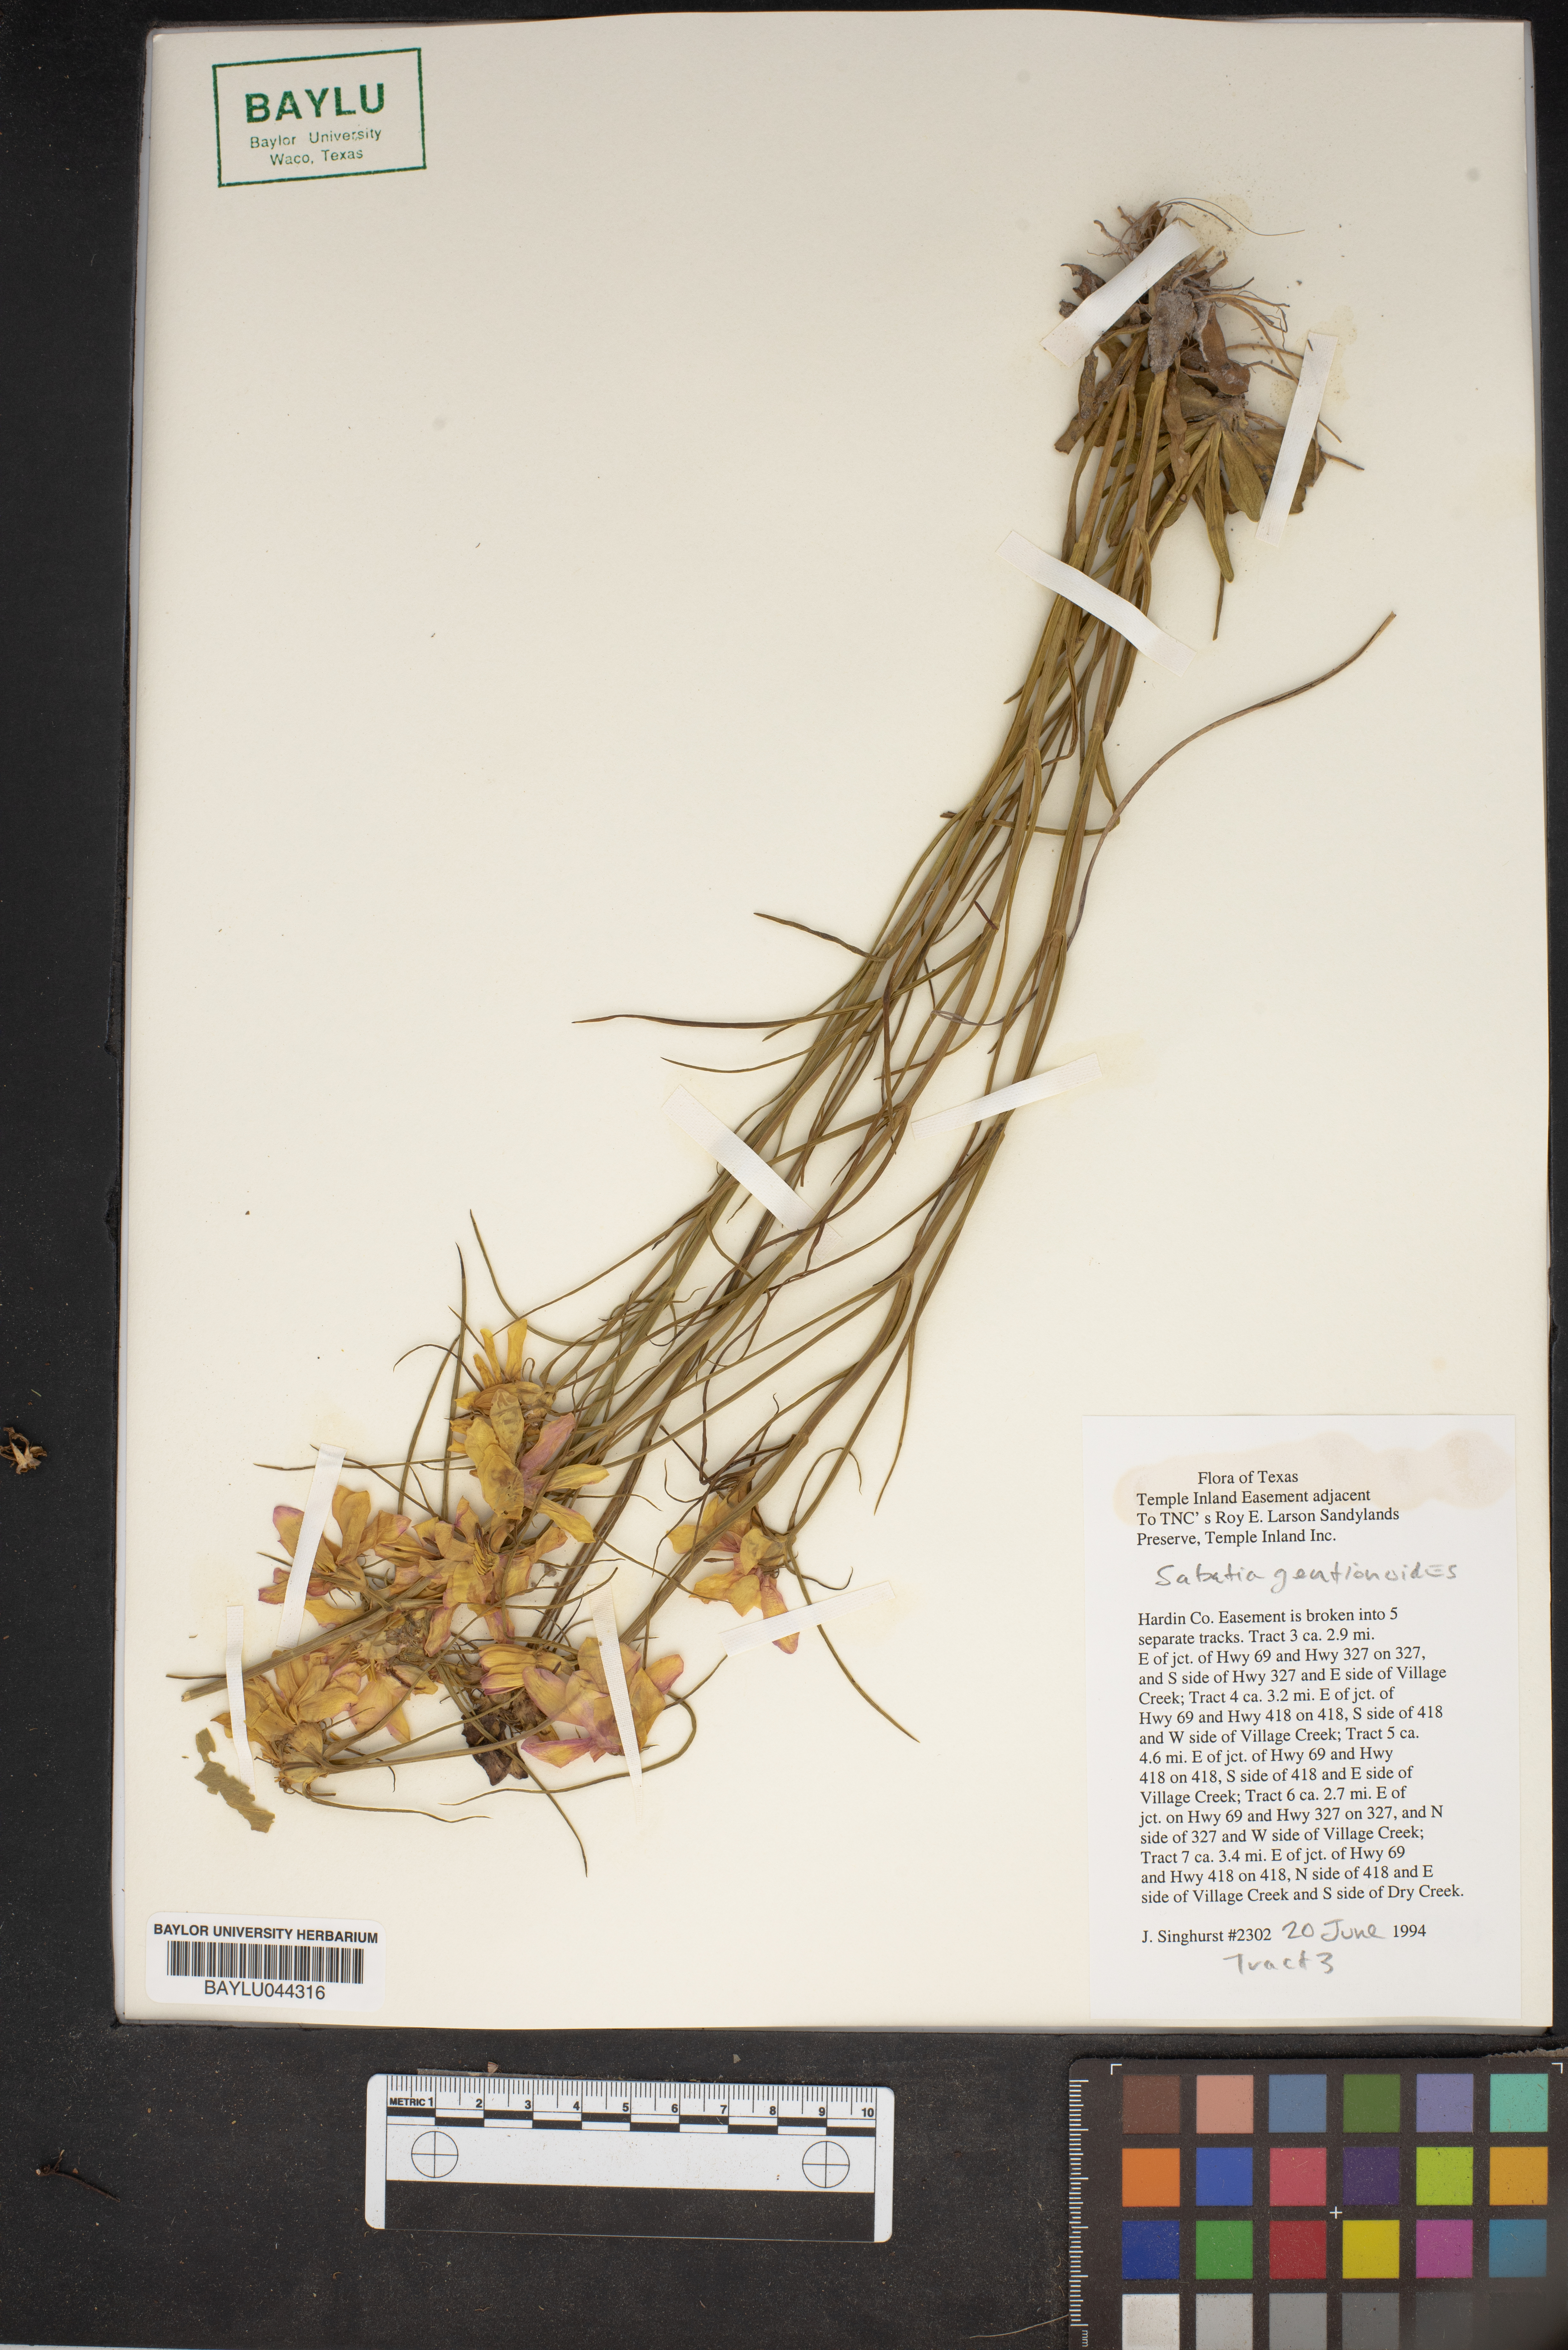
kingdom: Plantae
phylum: Tracheophyta
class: Magnoliopsida
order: Gentianales
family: Gentianaceae
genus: Sabatia
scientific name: Sabatia gentianoides
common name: Pinewoods rose-gentian
